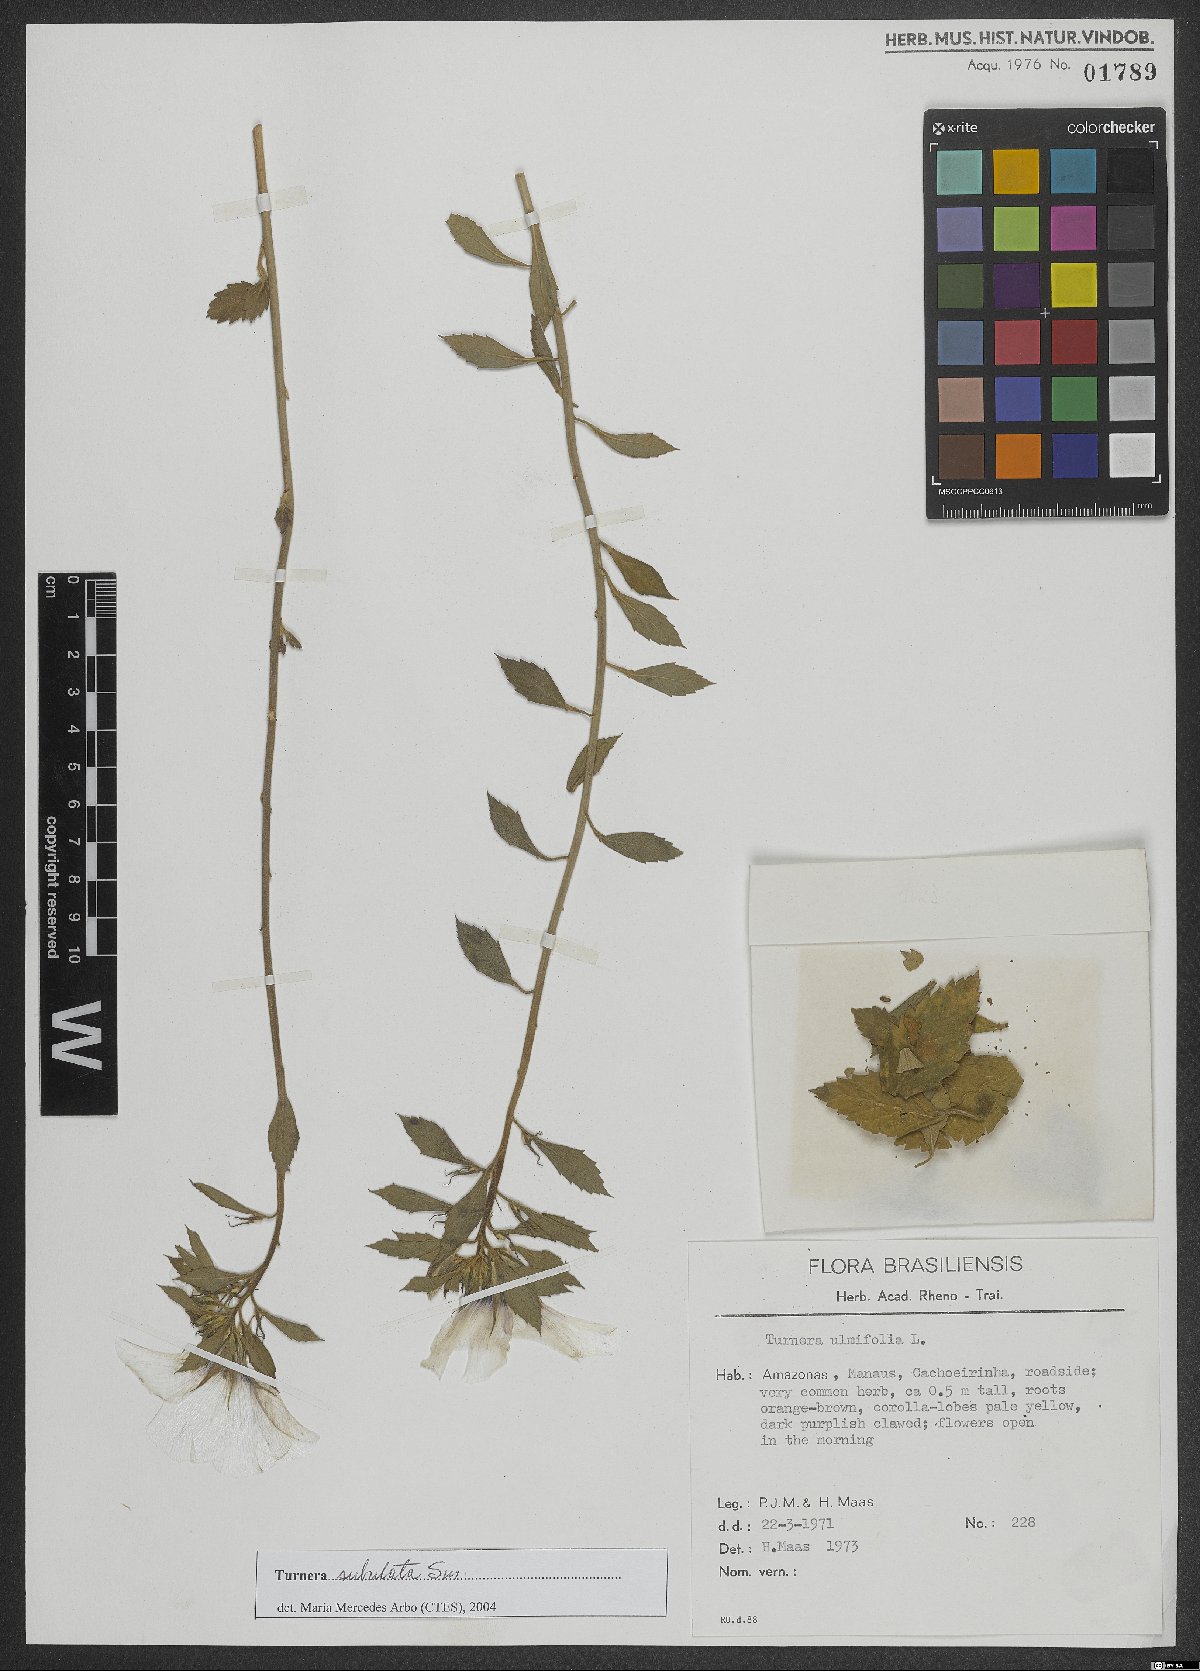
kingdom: Plantae
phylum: Tracheophyta
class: Magnoliopsida
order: Malpighiales
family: Turneraceae
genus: Turnera
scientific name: Turnera subulata
